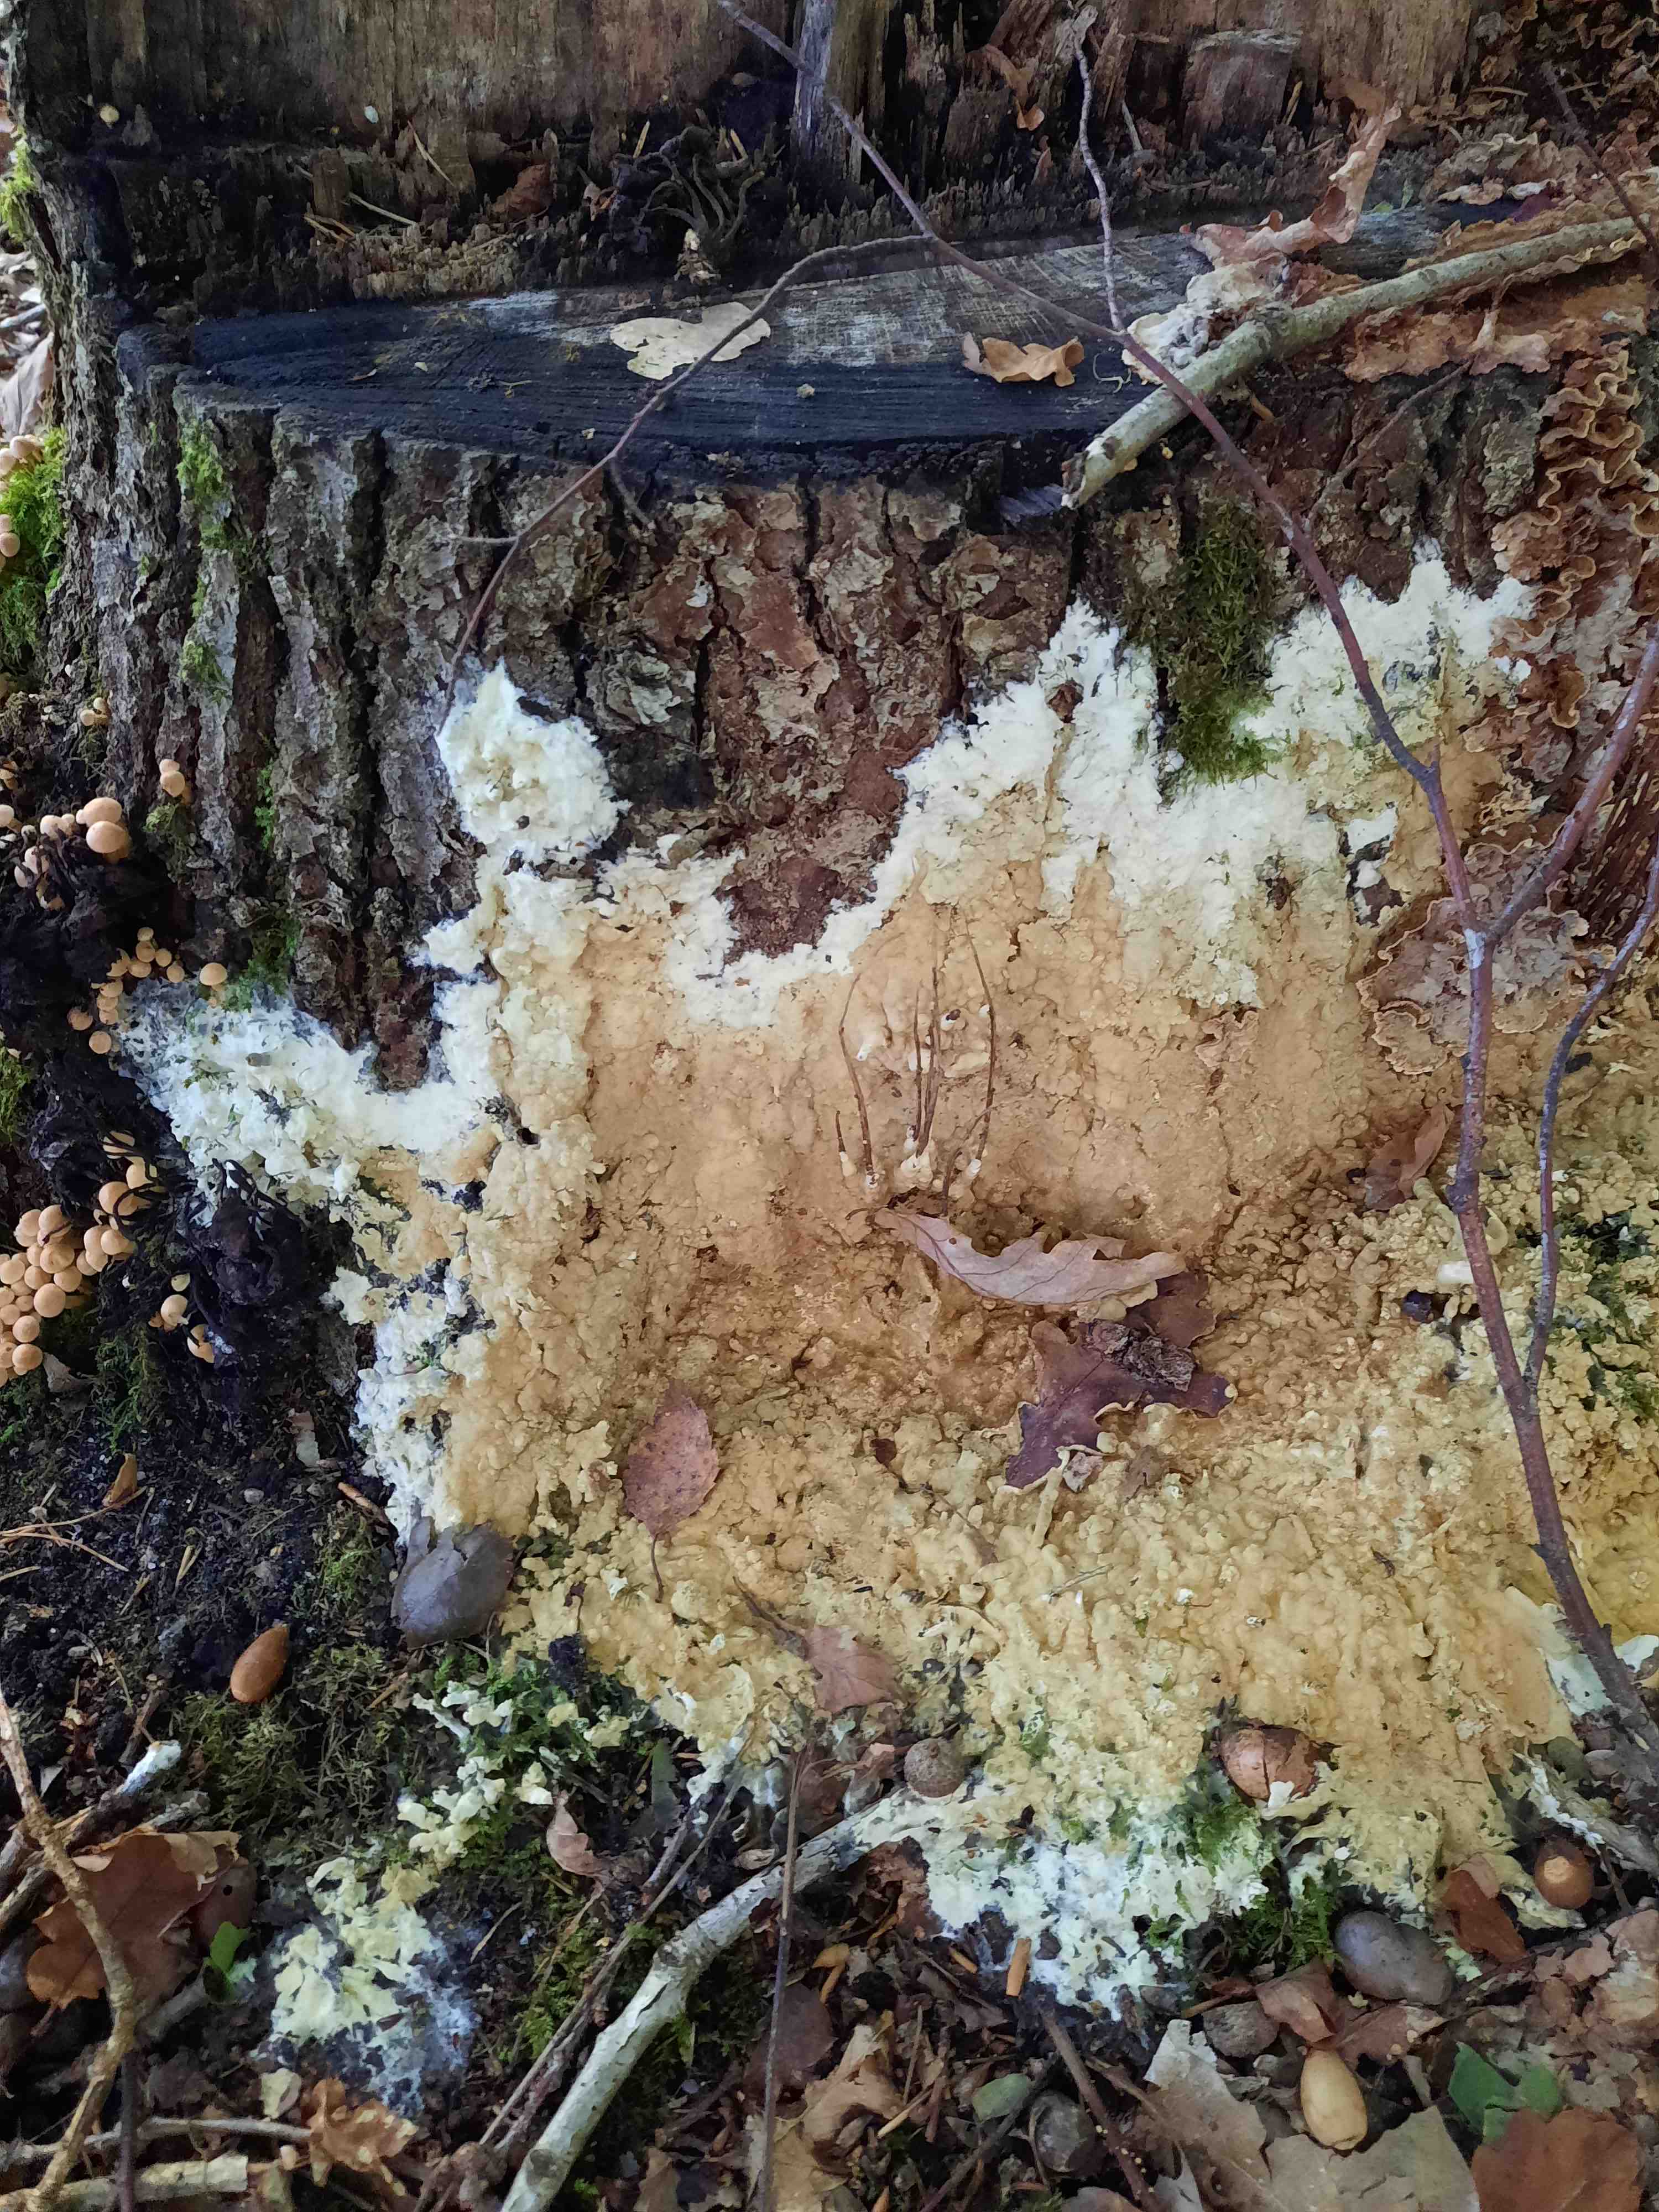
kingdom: Fungi
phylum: Ascomycota
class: Sordariomycetes
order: Hypocreales
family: Hypocreaceae
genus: Trichoderma
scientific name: Trichoderma citrinum
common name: udbredt kødkerne
